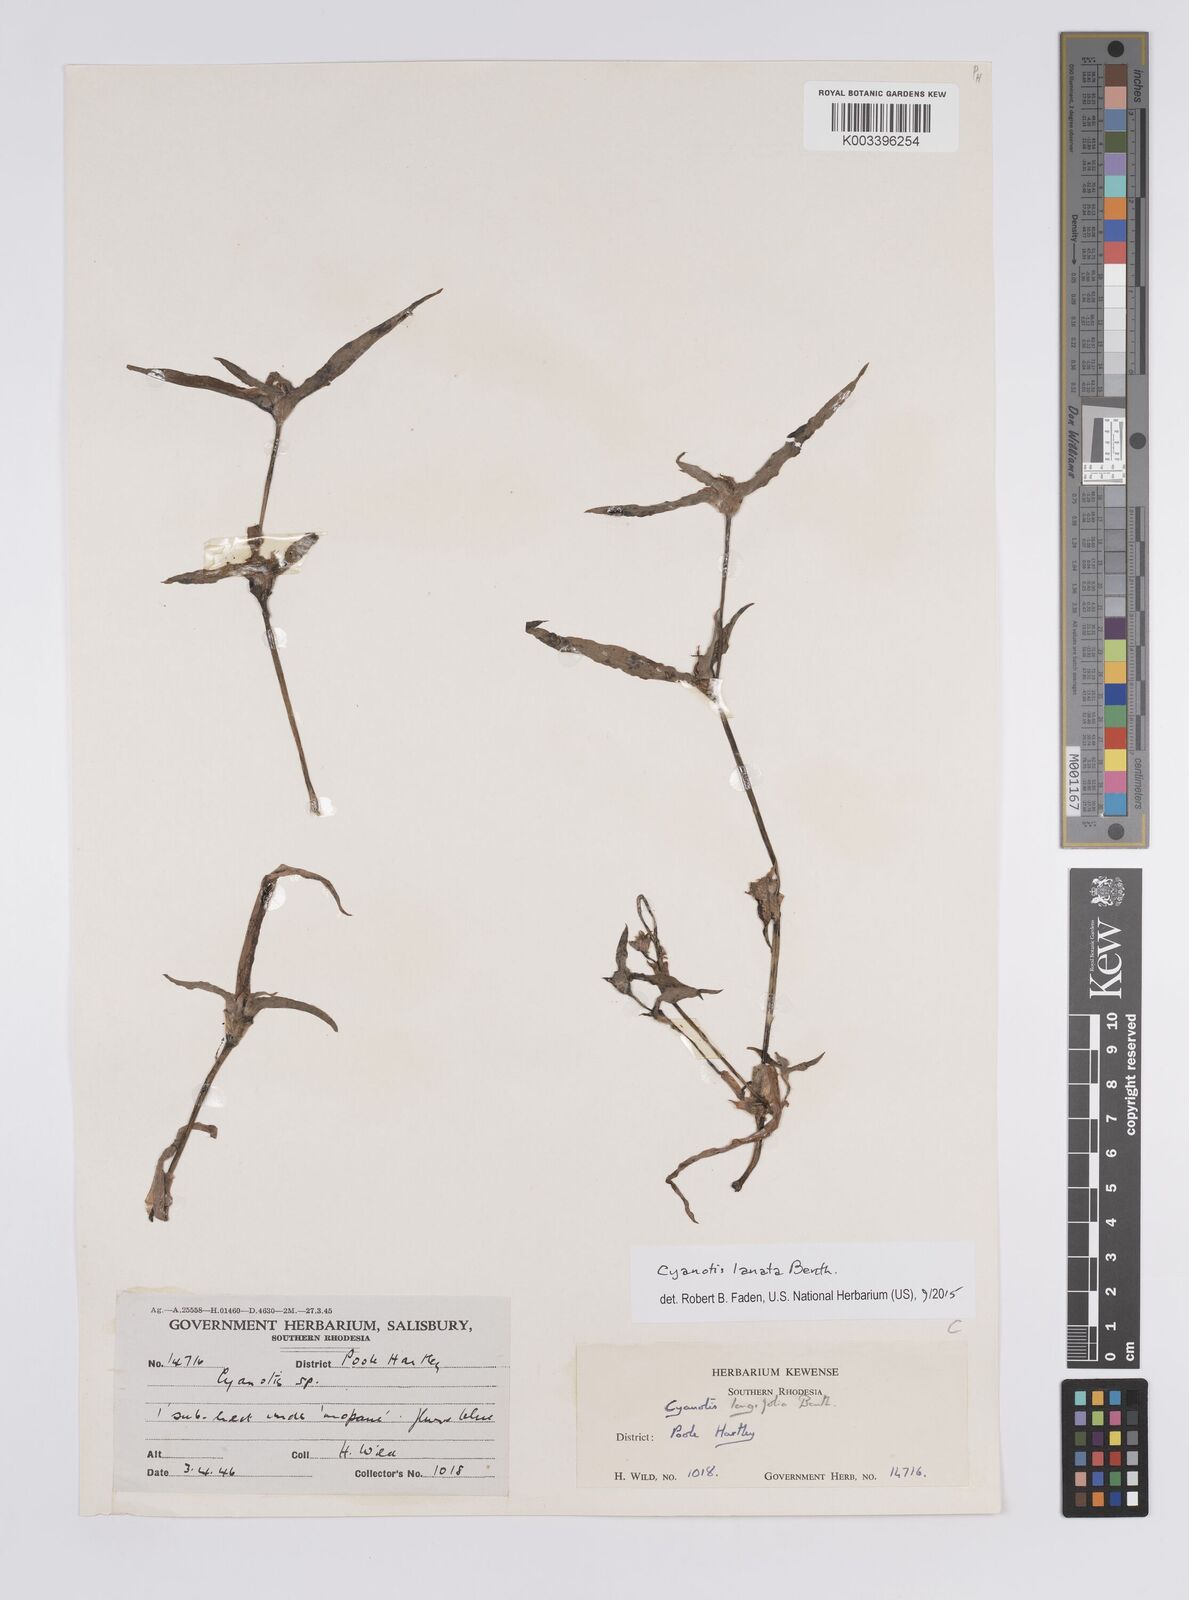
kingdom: Plantae
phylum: Tracheophyta
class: Liliopsida
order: Commelinales
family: Commelinaceae
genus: Cyanotis
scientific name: Cyanotis lanata
